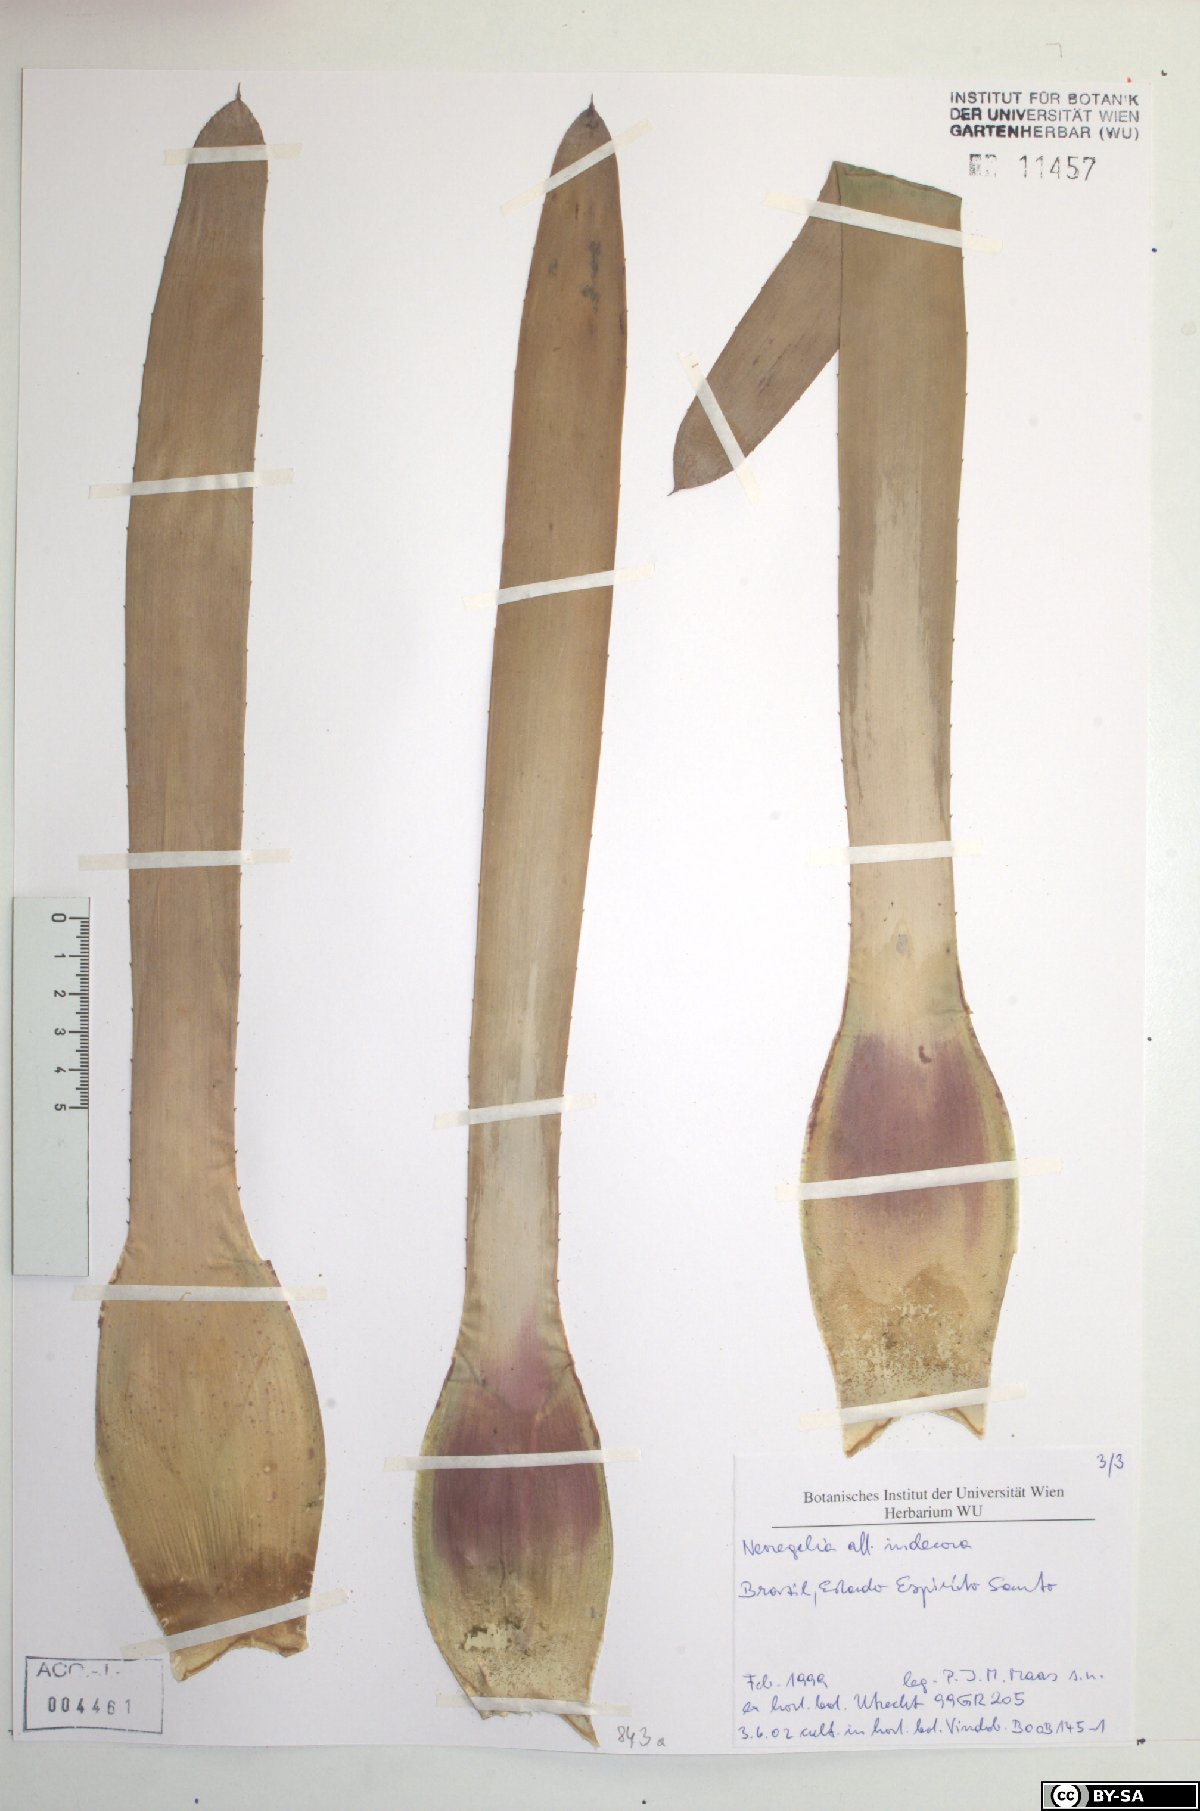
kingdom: Plantae
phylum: Tracheophyta
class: Liliopsida
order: Poales
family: Bromeliaceae
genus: Neoregelia
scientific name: Neoregelia indecora
